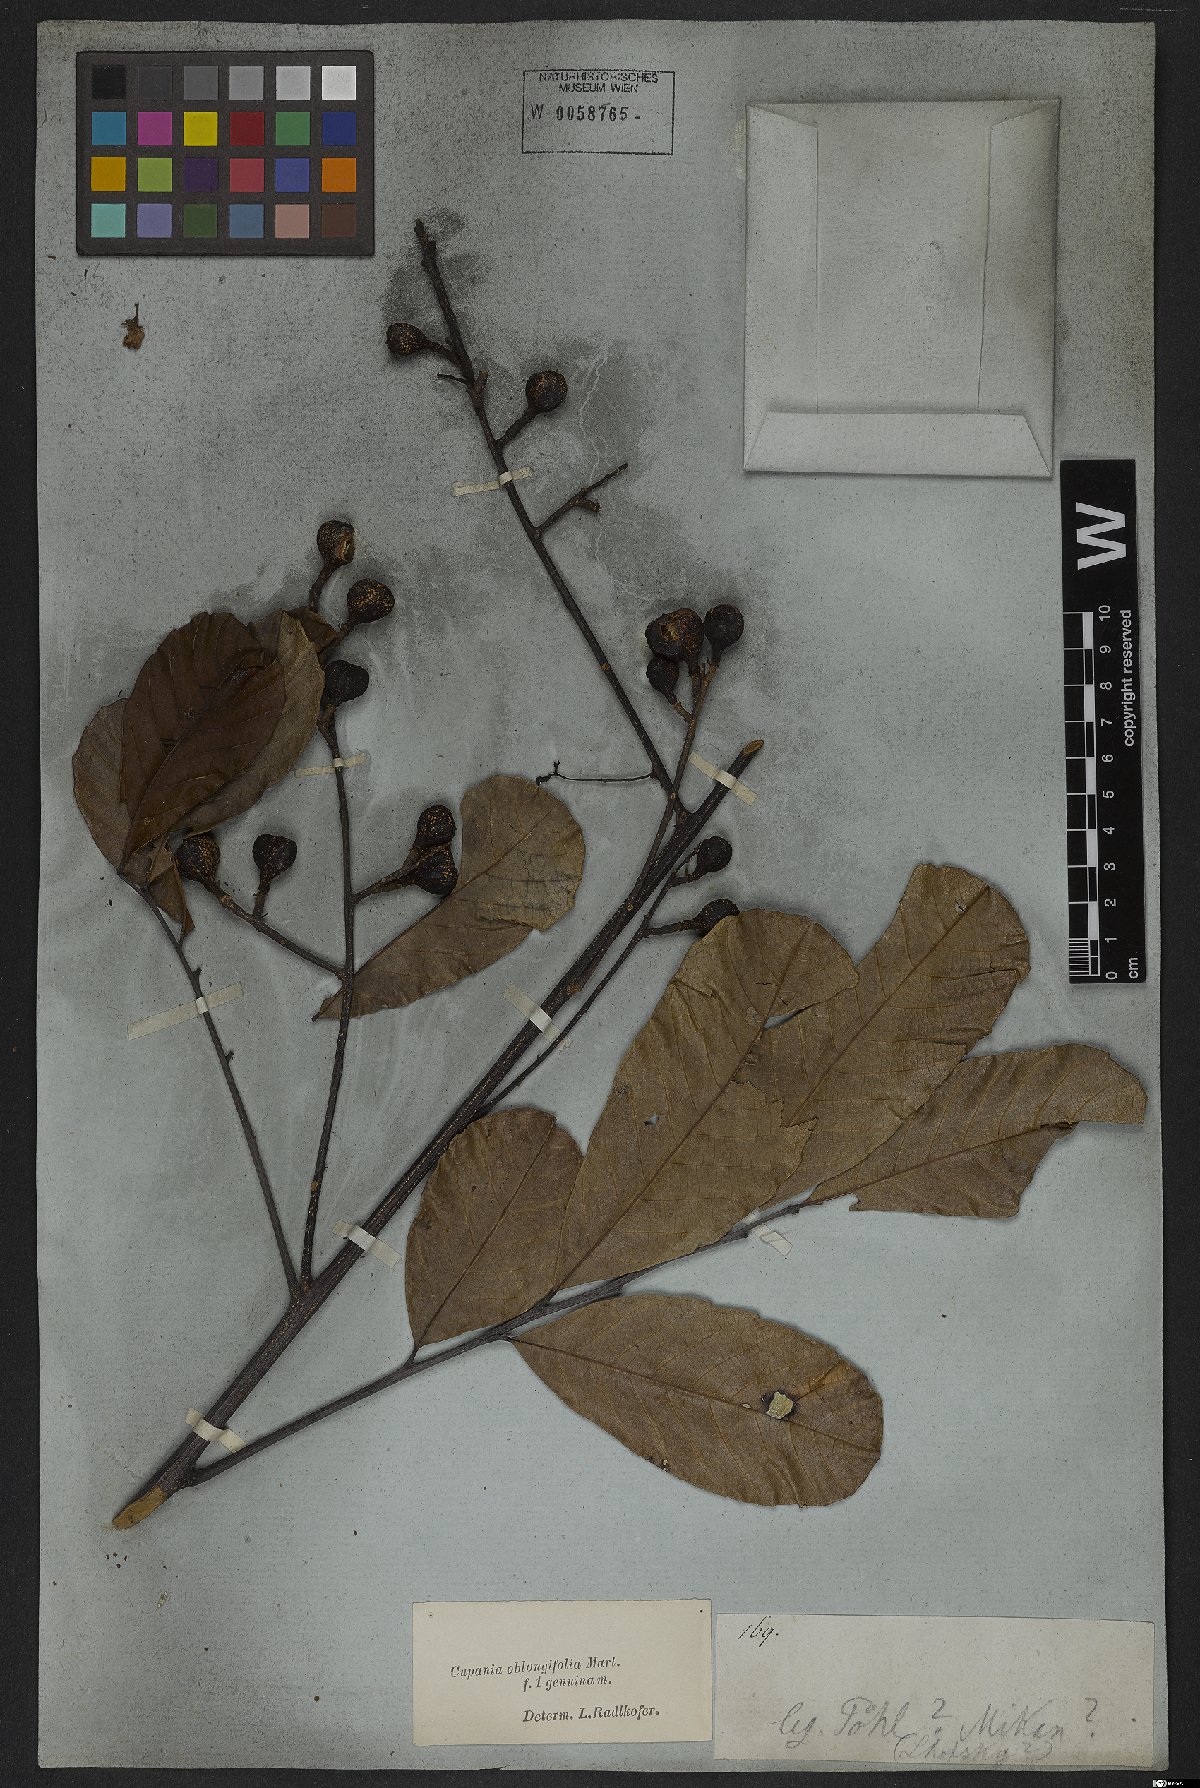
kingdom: Plantae
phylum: Tracheophyta
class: Magnoliopsida
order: Sapindales
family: Sapindaceae
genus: Cupania
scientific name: Cupania oblongifolia
